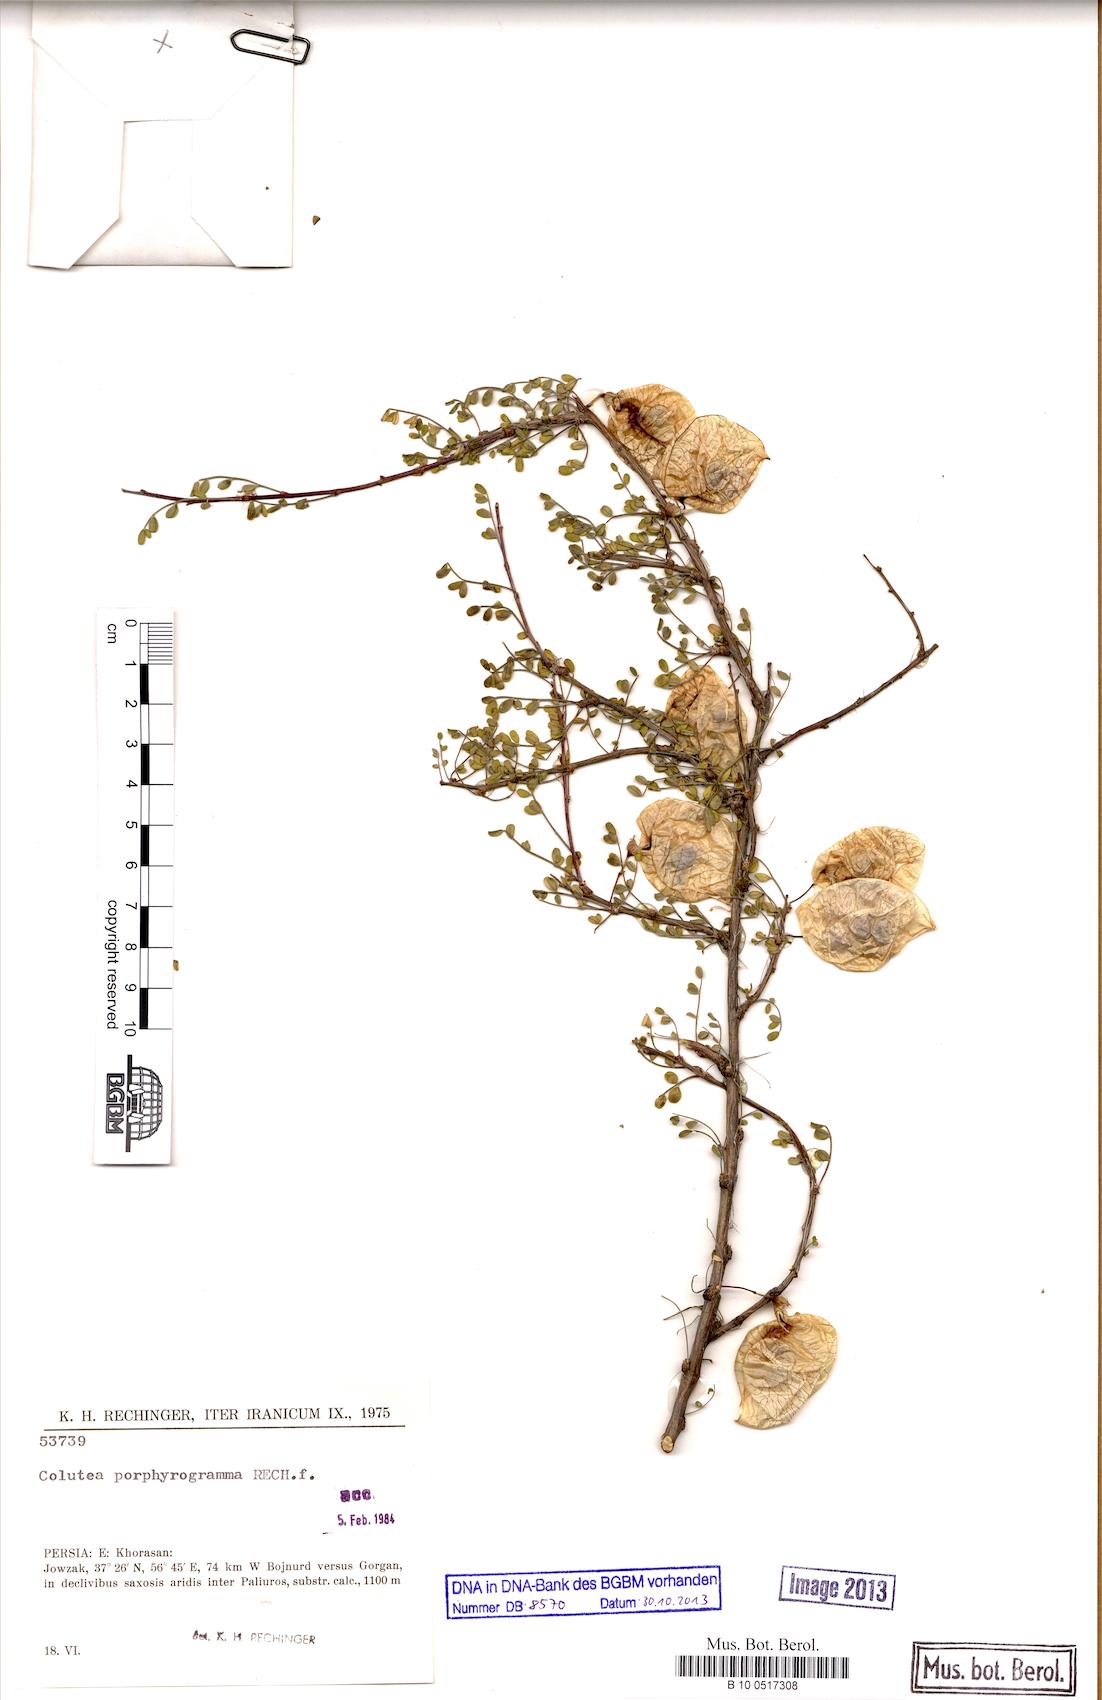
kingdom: Plantae
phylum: Tracheophyta
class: Magnoliopsida
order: Fabales
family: Fabaceae
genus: Colutea
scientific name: Colutea porphyrogramma
